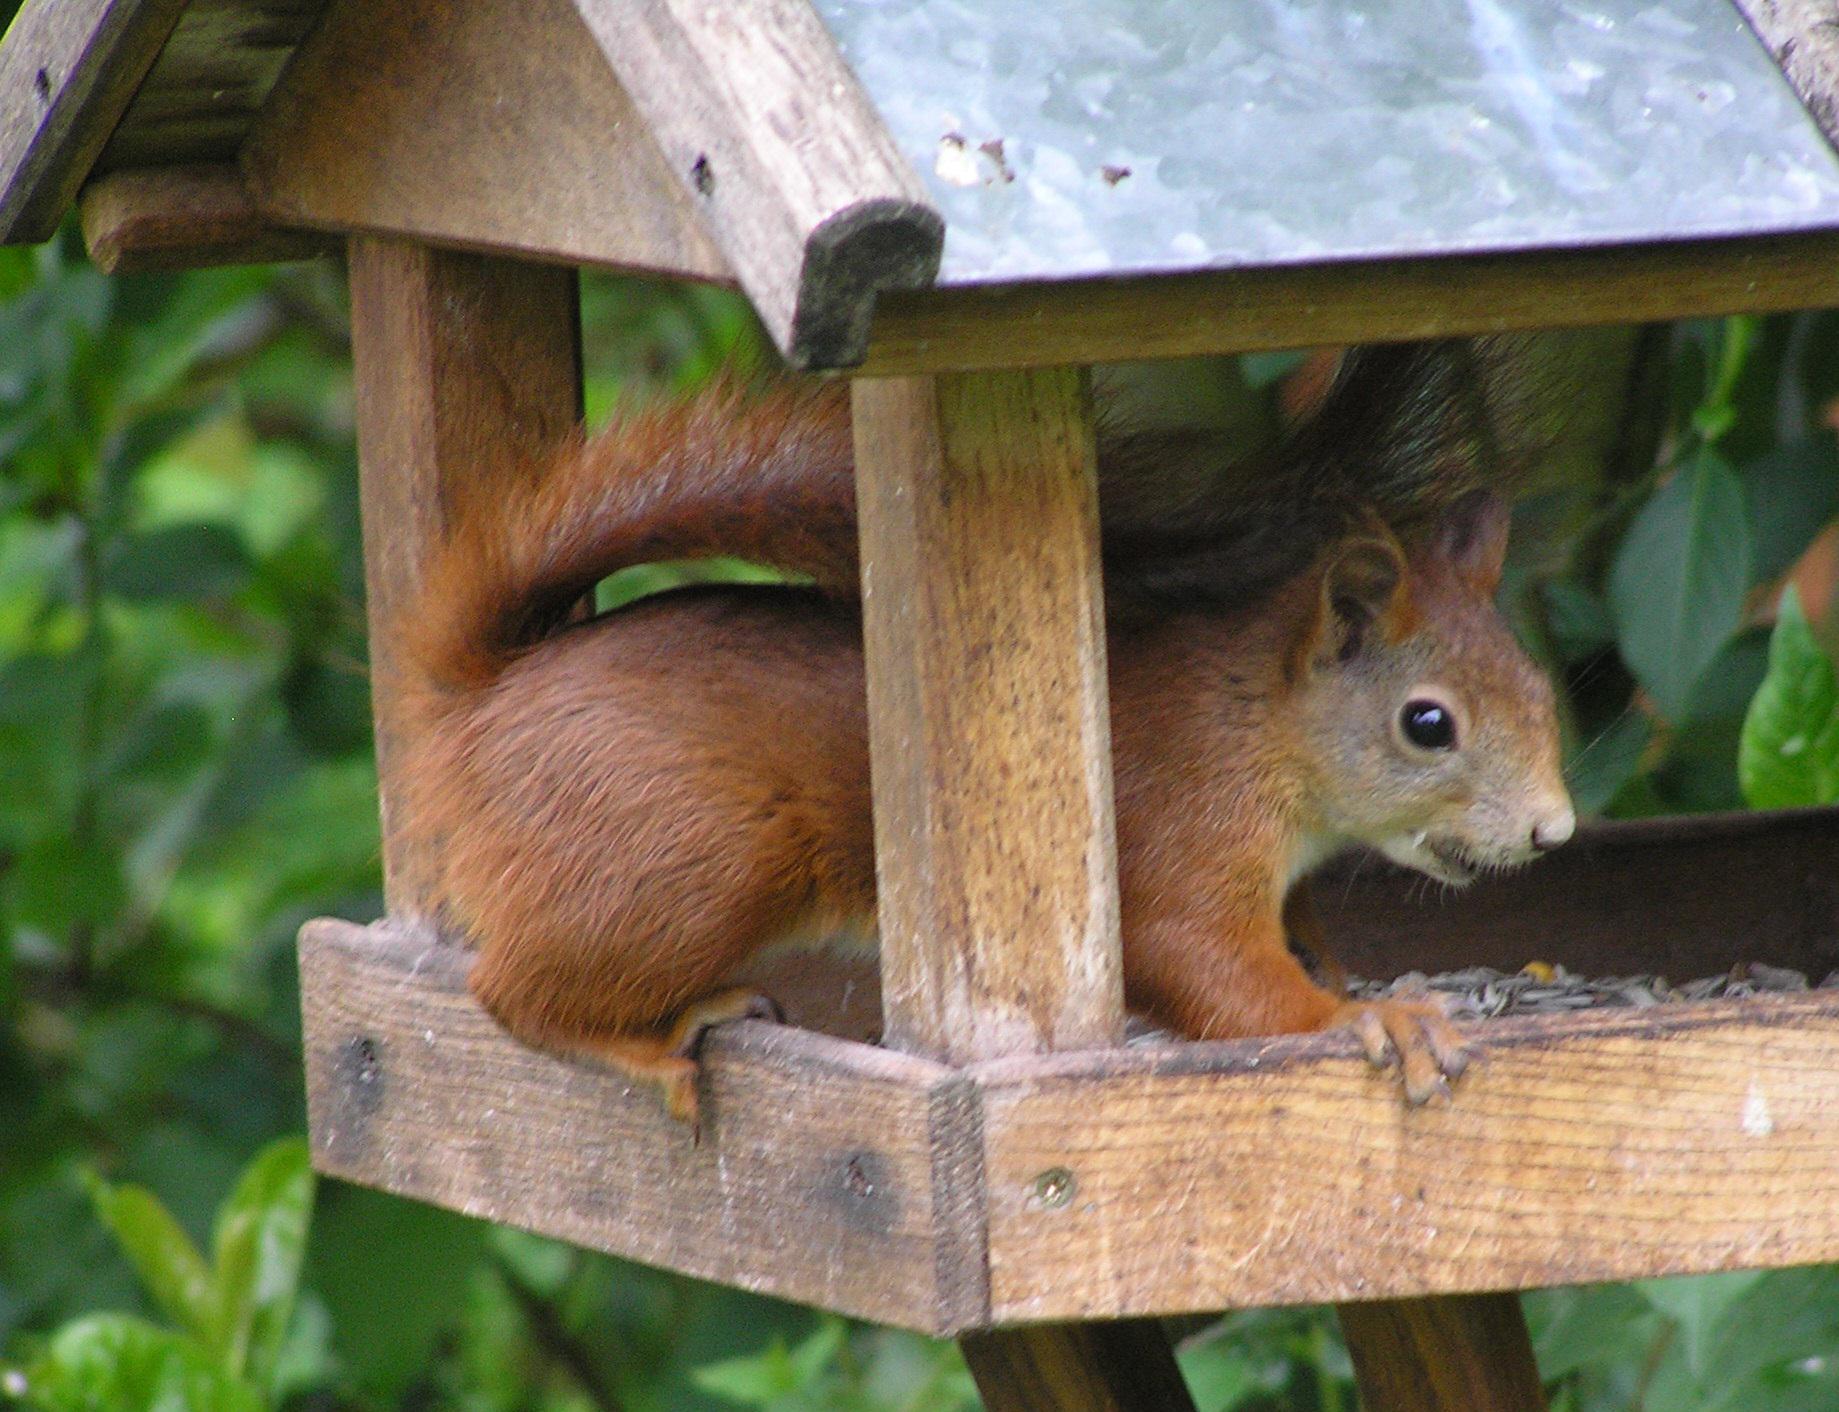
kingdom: Animalia
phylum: Chordata
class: Mammalia
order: Rodentia
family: Sciuridae
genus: Sciurus
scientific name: Sciurus vulgaris
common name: Egern
